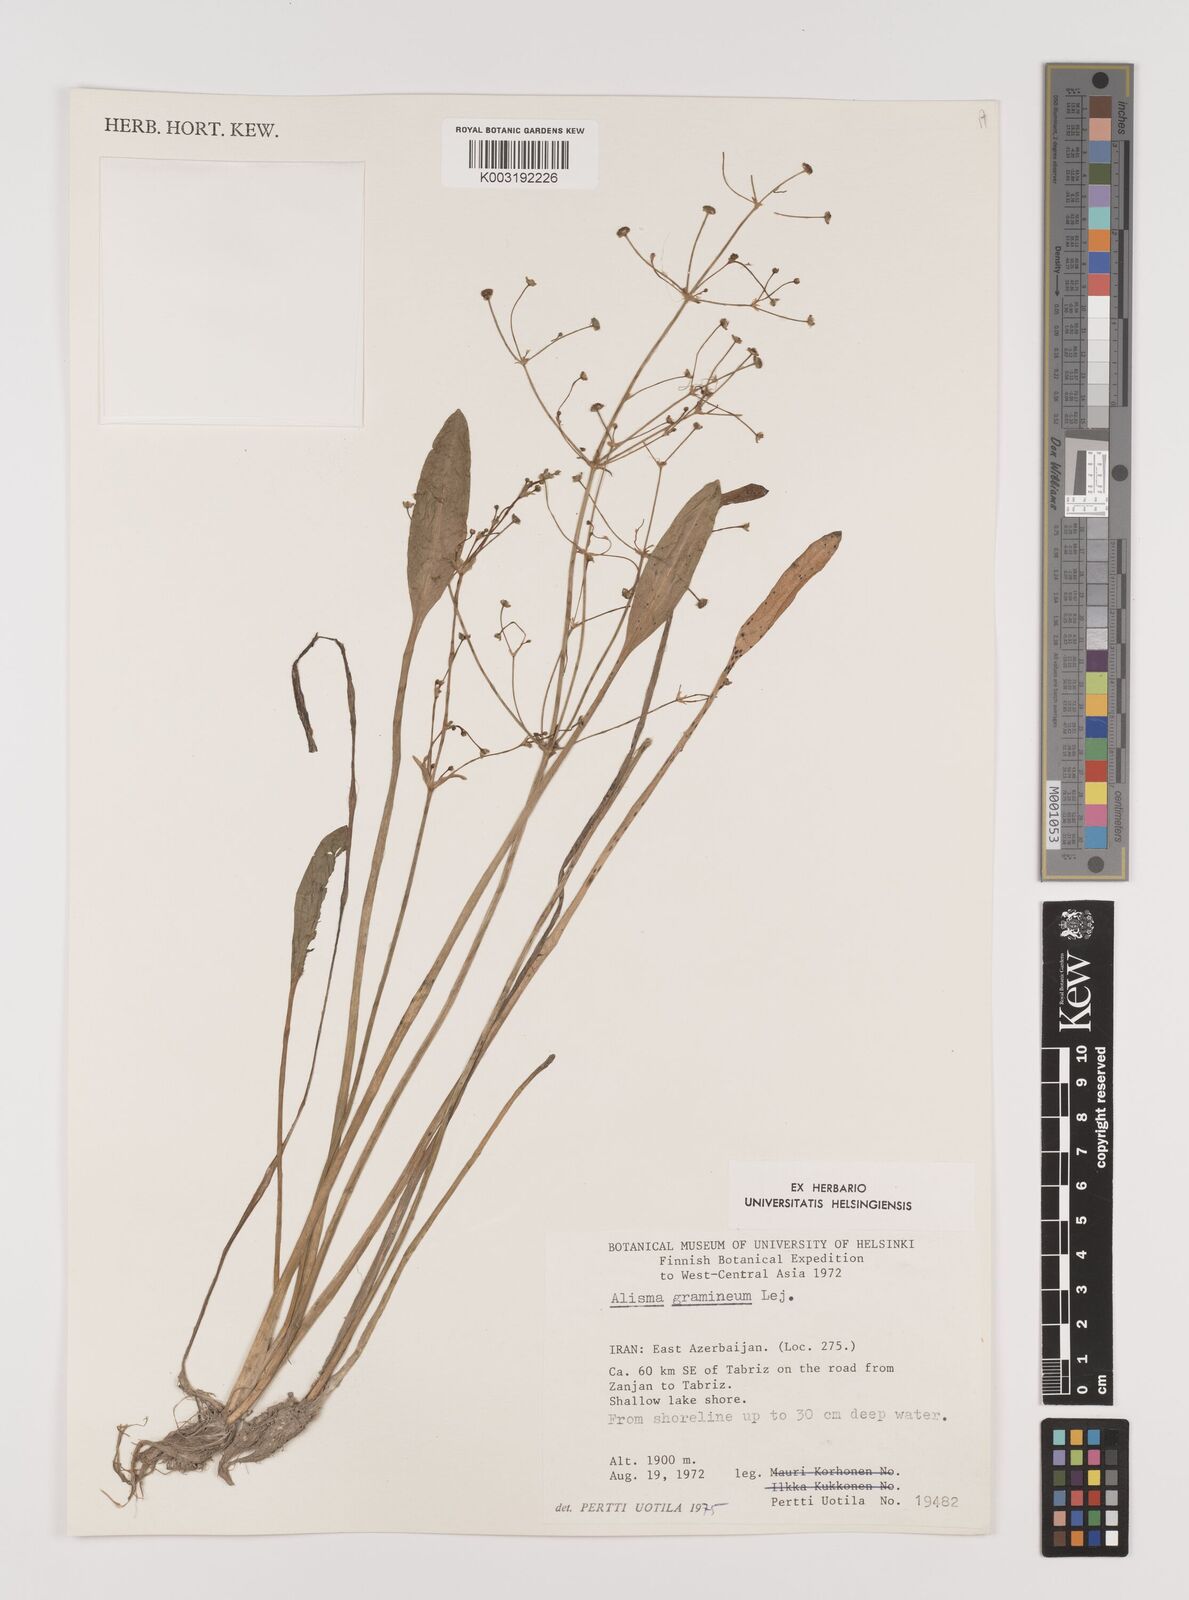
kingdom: Plantae
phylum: Tracheophyta
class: Liliopsida
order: Alismatales
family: Alismataceae
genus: Alisma
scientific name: Alisma gramineum
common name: Ribbon-leaved water-plantain
